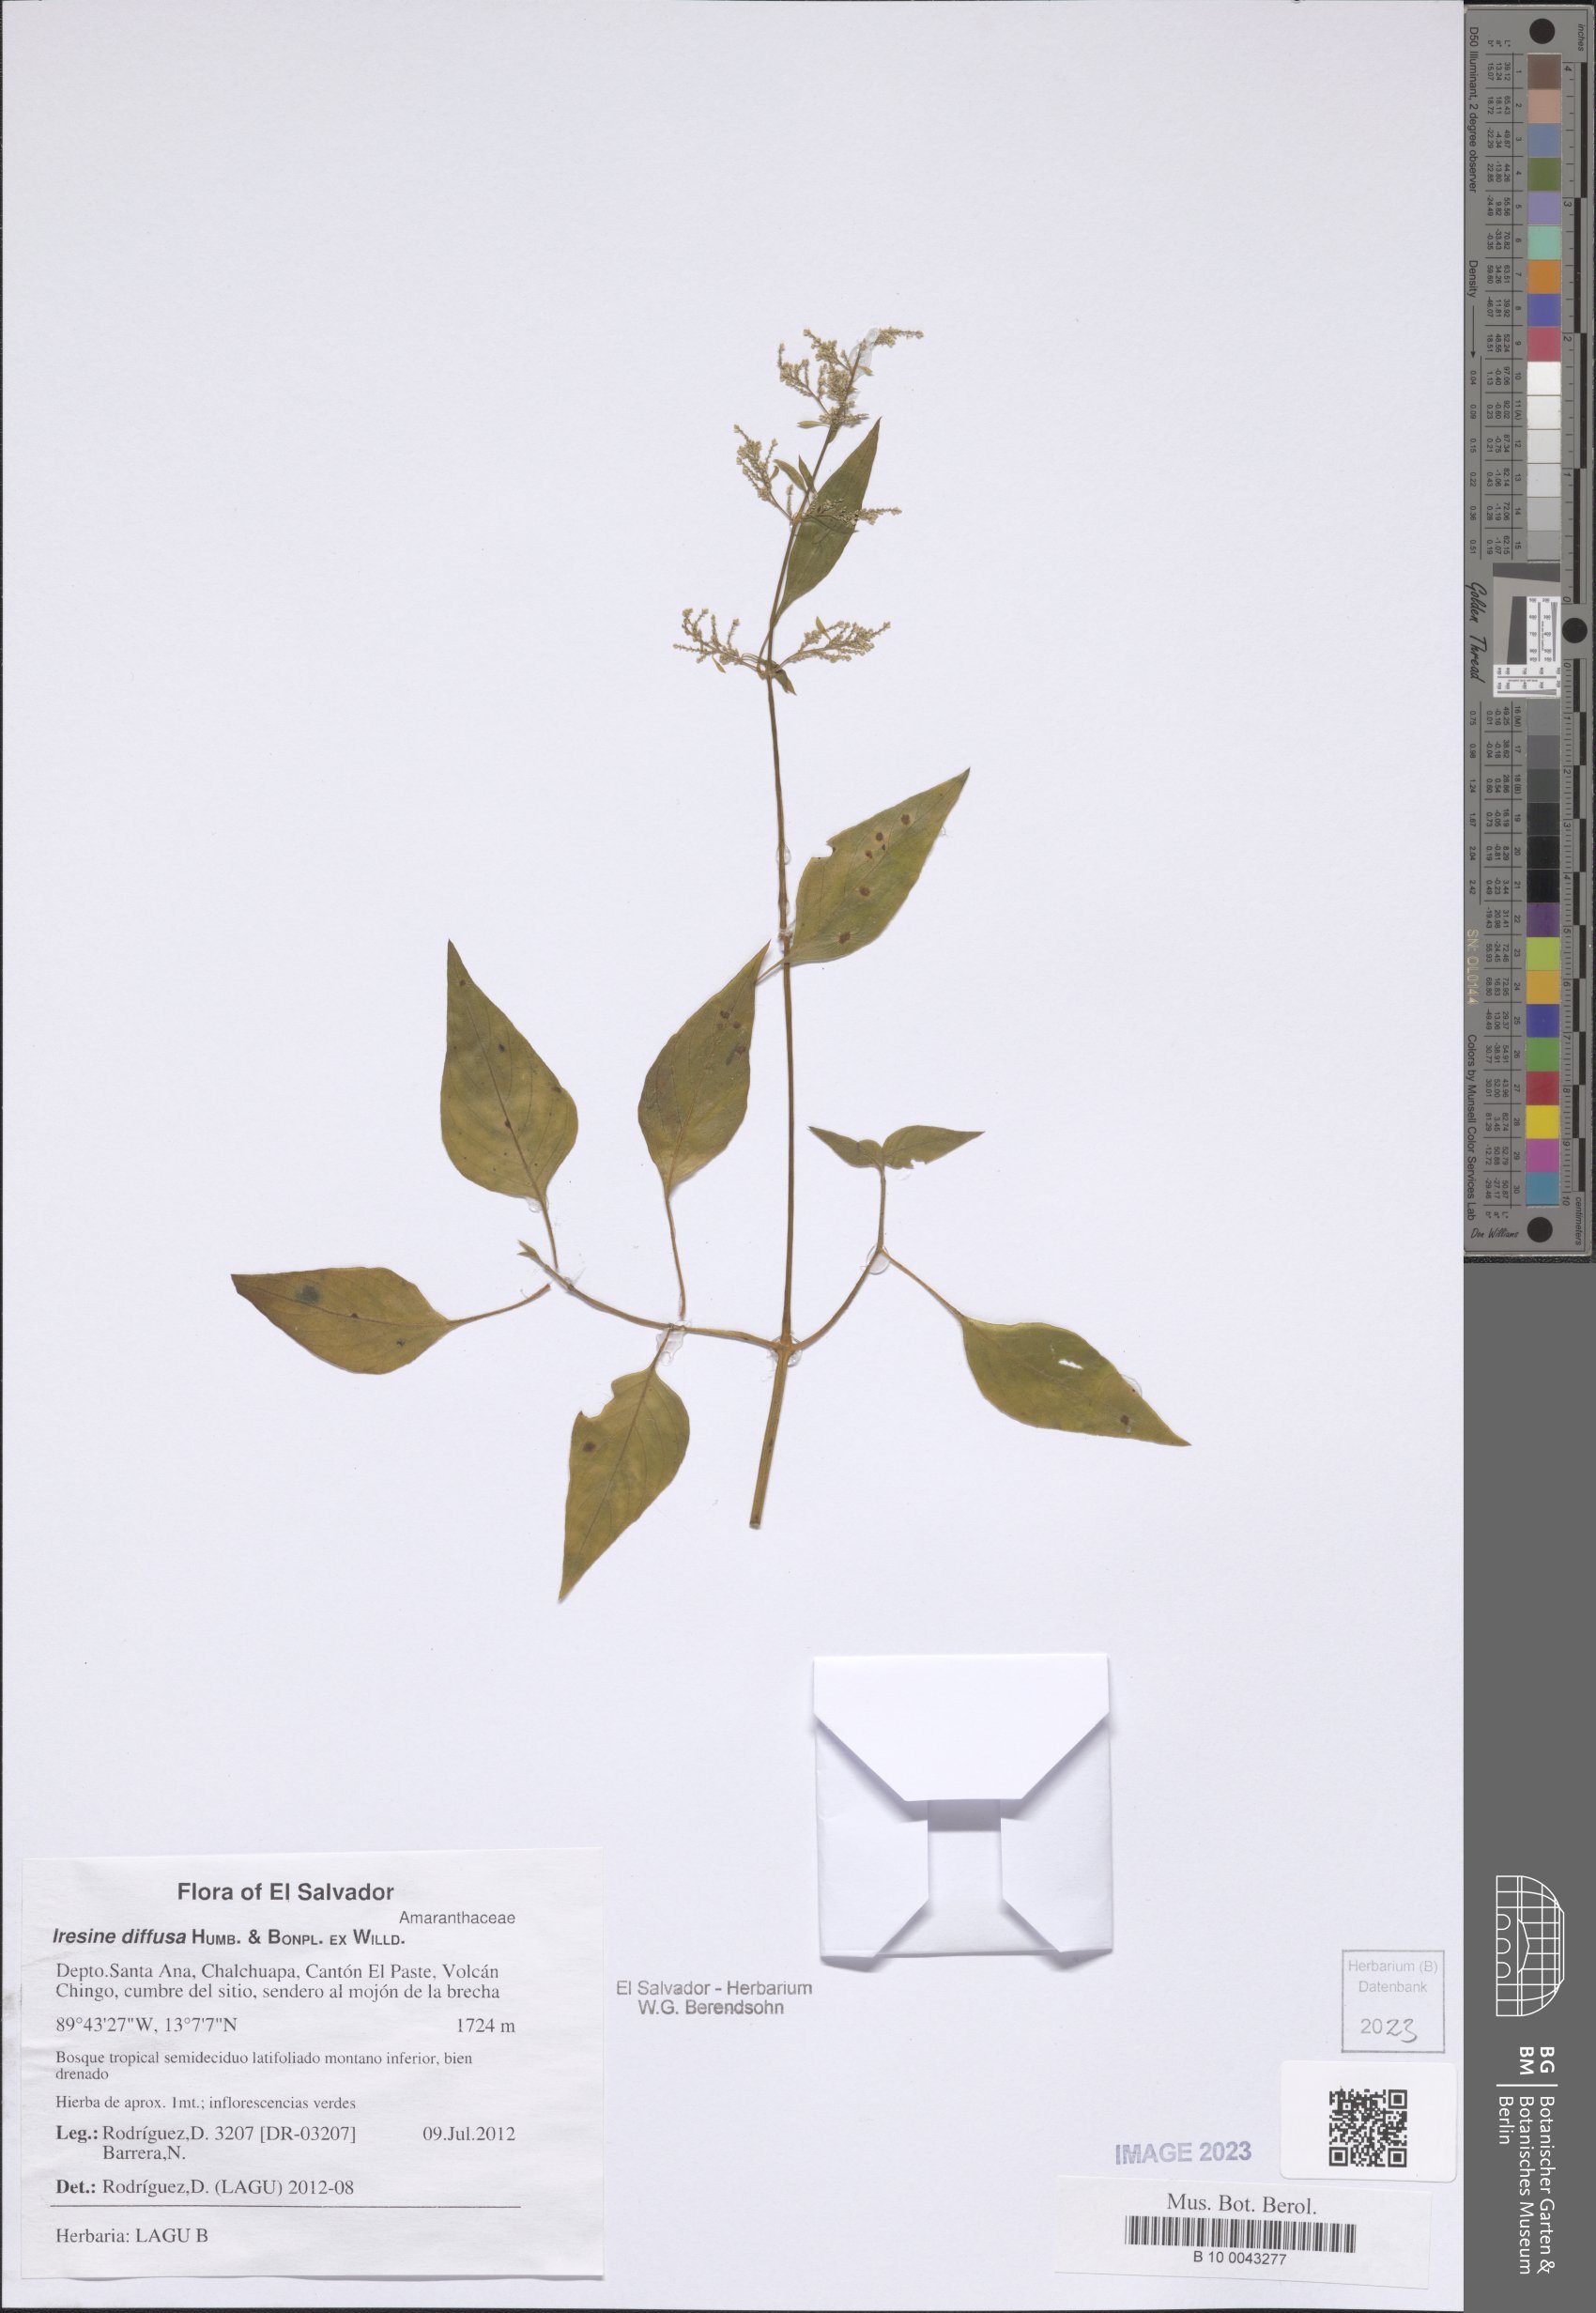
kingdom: Plantae
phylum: Tracheophyta
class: Magnoliopsida
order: Caryophyllales
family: Amaranthaceae
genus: Iresine
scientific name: Iresine diffusa
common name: Juba's-bush
